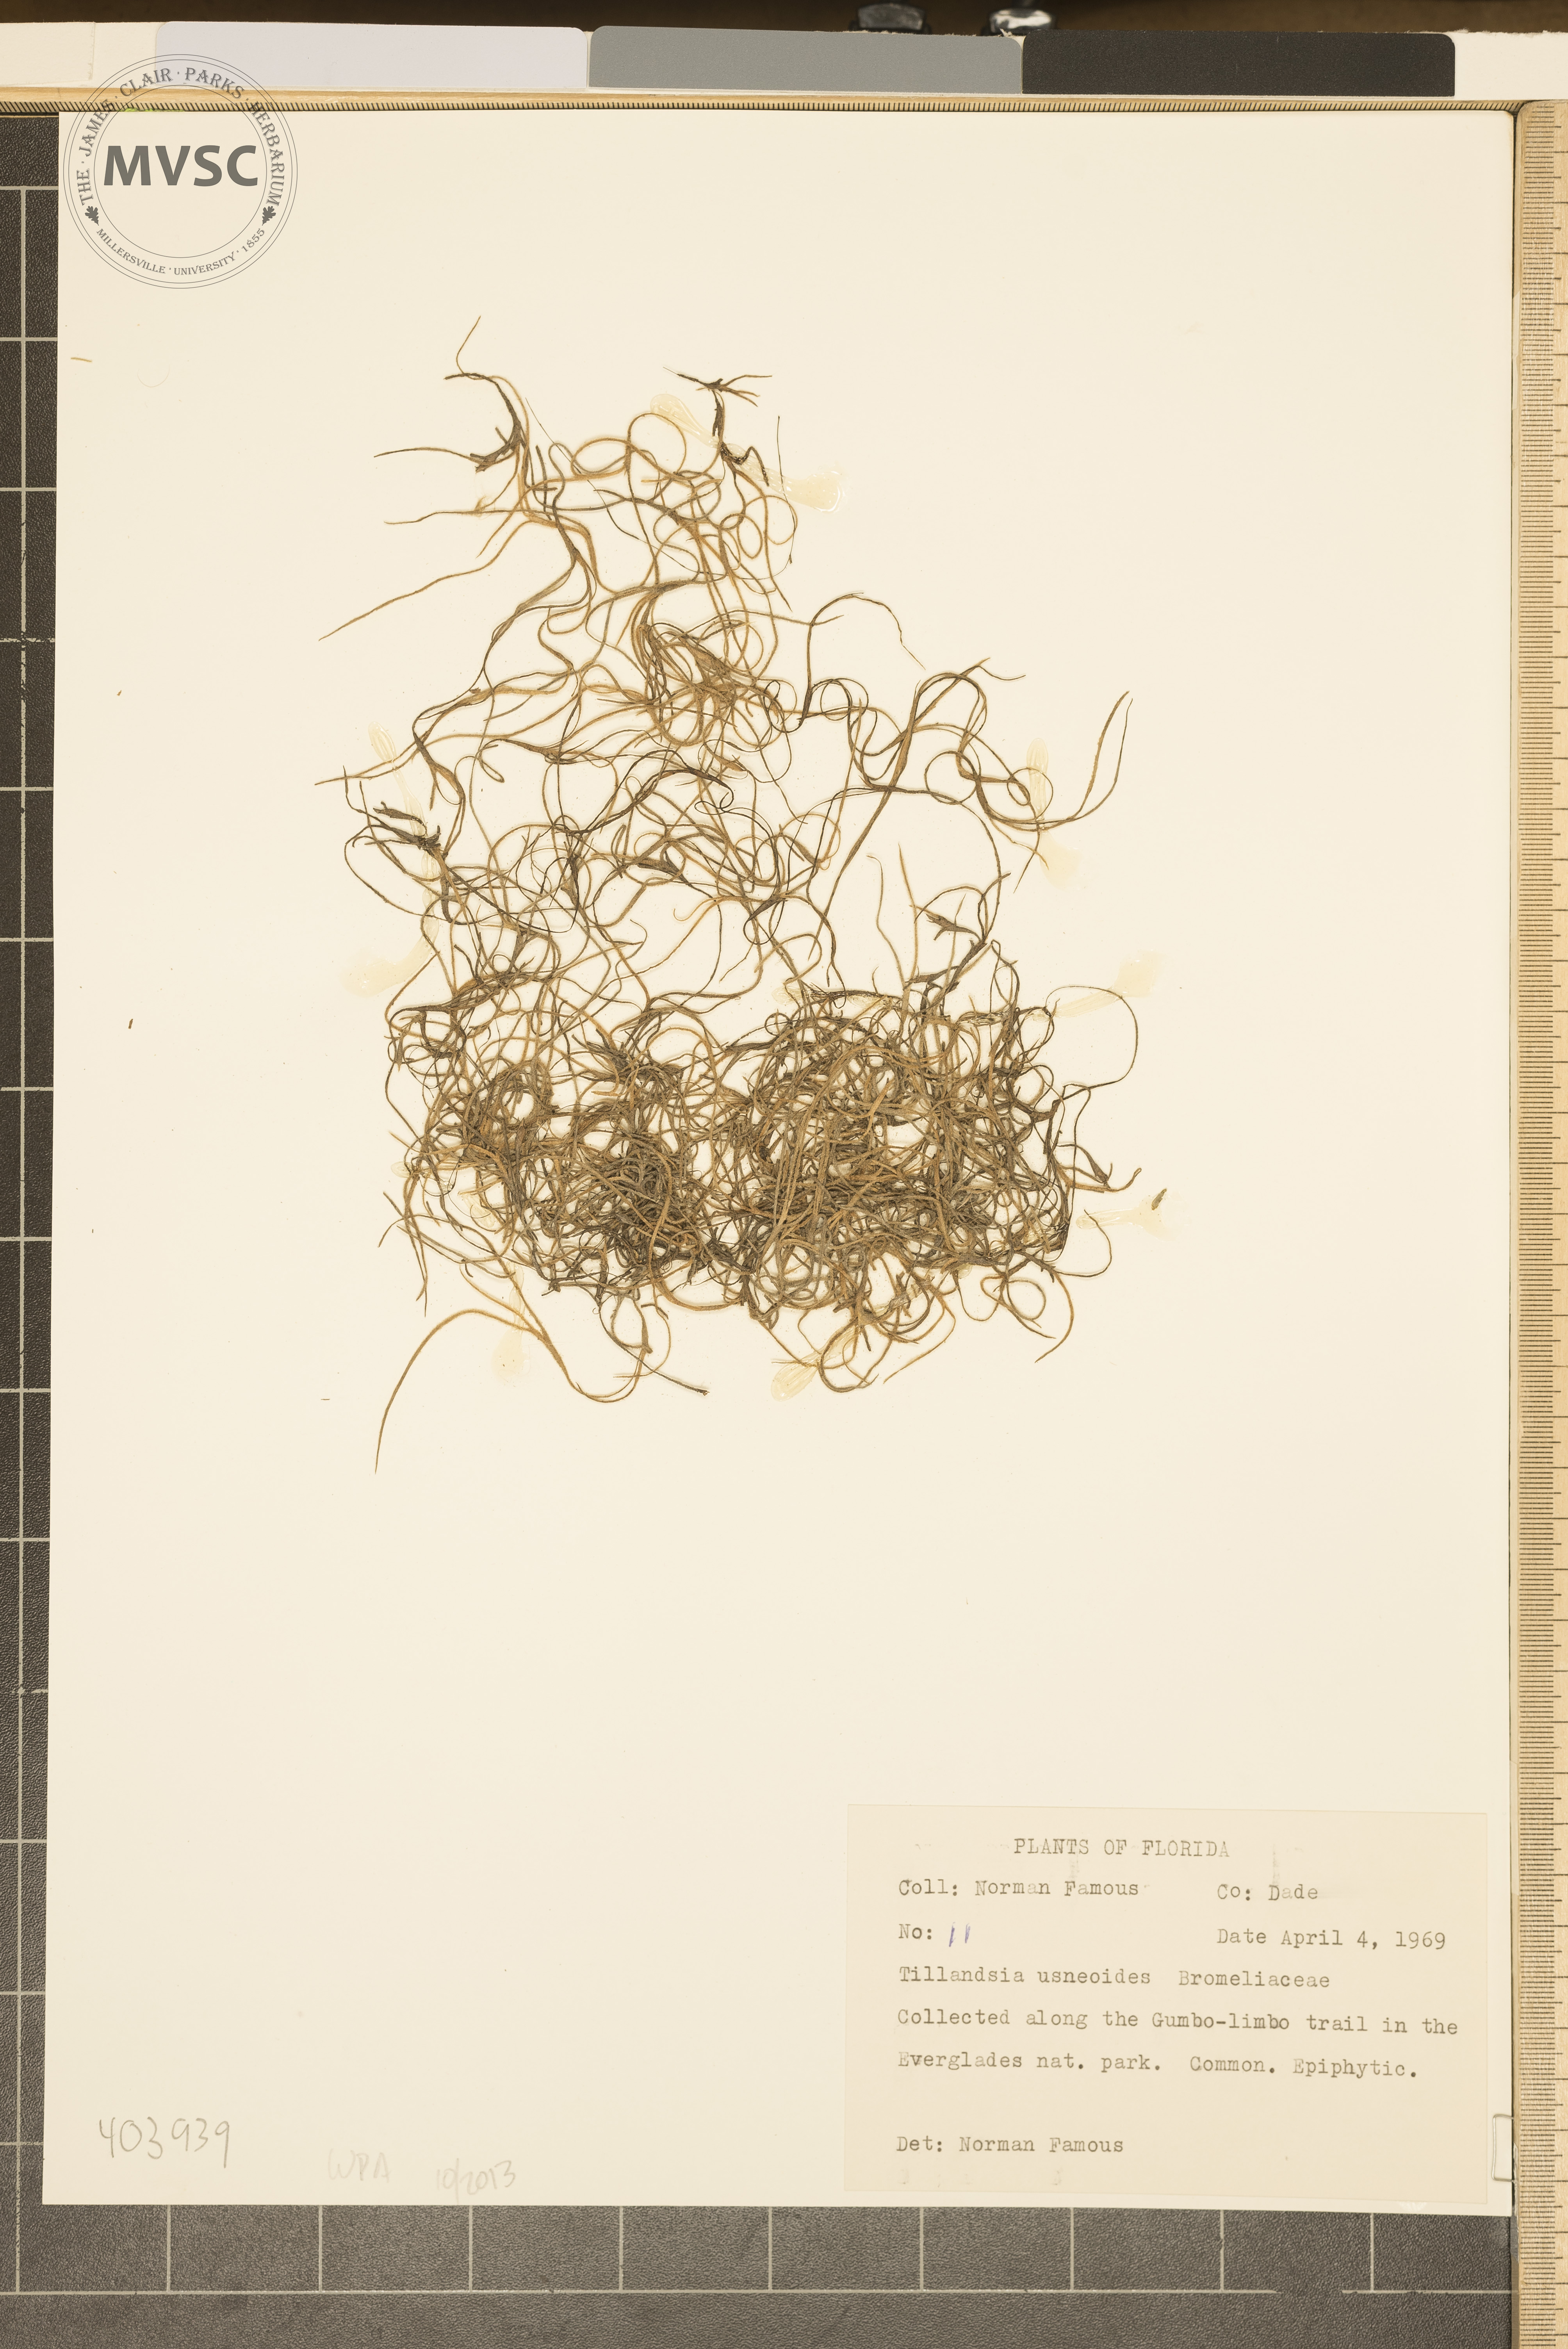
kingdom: Plantae
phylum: Tracheophyta
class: Liliopsida
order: Poales
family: Bromeliaceae
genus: Tillandsia
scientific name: Tillandsia usneoides
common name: Spanish-moss
